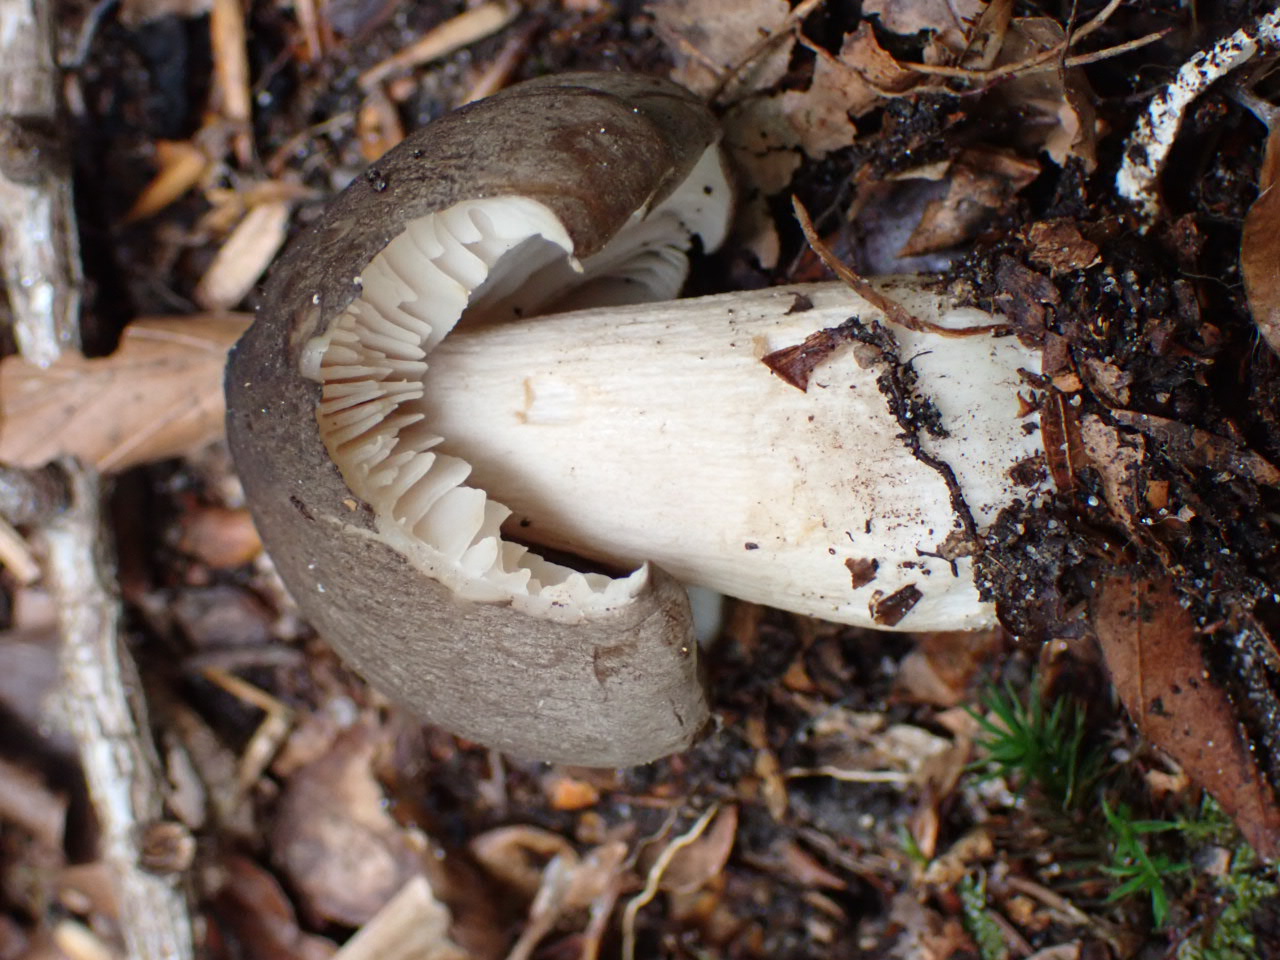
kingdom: Fungi
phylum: Basidiomycota
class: Agaricomycetes
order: Agaricales
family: Tricholomataceae
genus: Megacollybia
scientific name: Megacollybia platyphylla
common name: bredbladet væbnerhat
